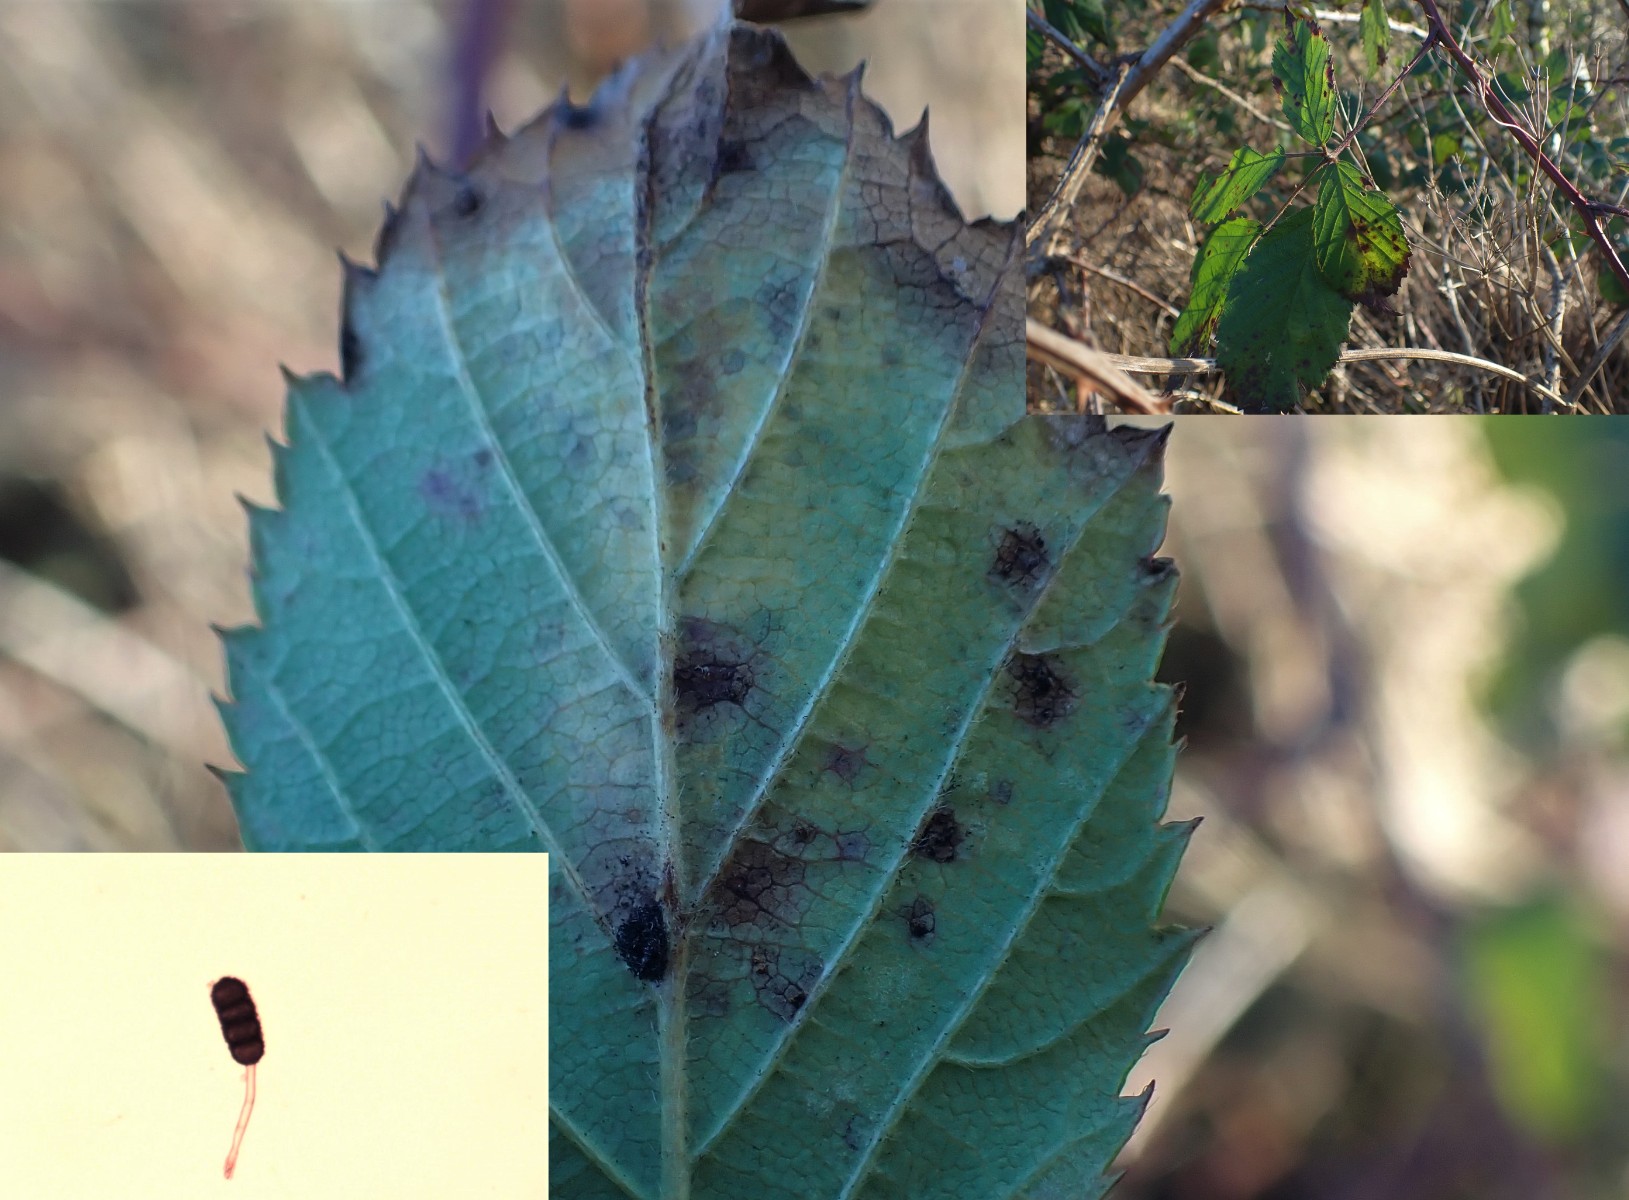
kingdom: Fungi
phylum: Basidiomycota
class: Pucciniomycetes
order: Pucciniales
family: Phragmidiaceae
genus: Phragmidium
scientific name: Phragmidium violaceum
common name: violet flercellerust
